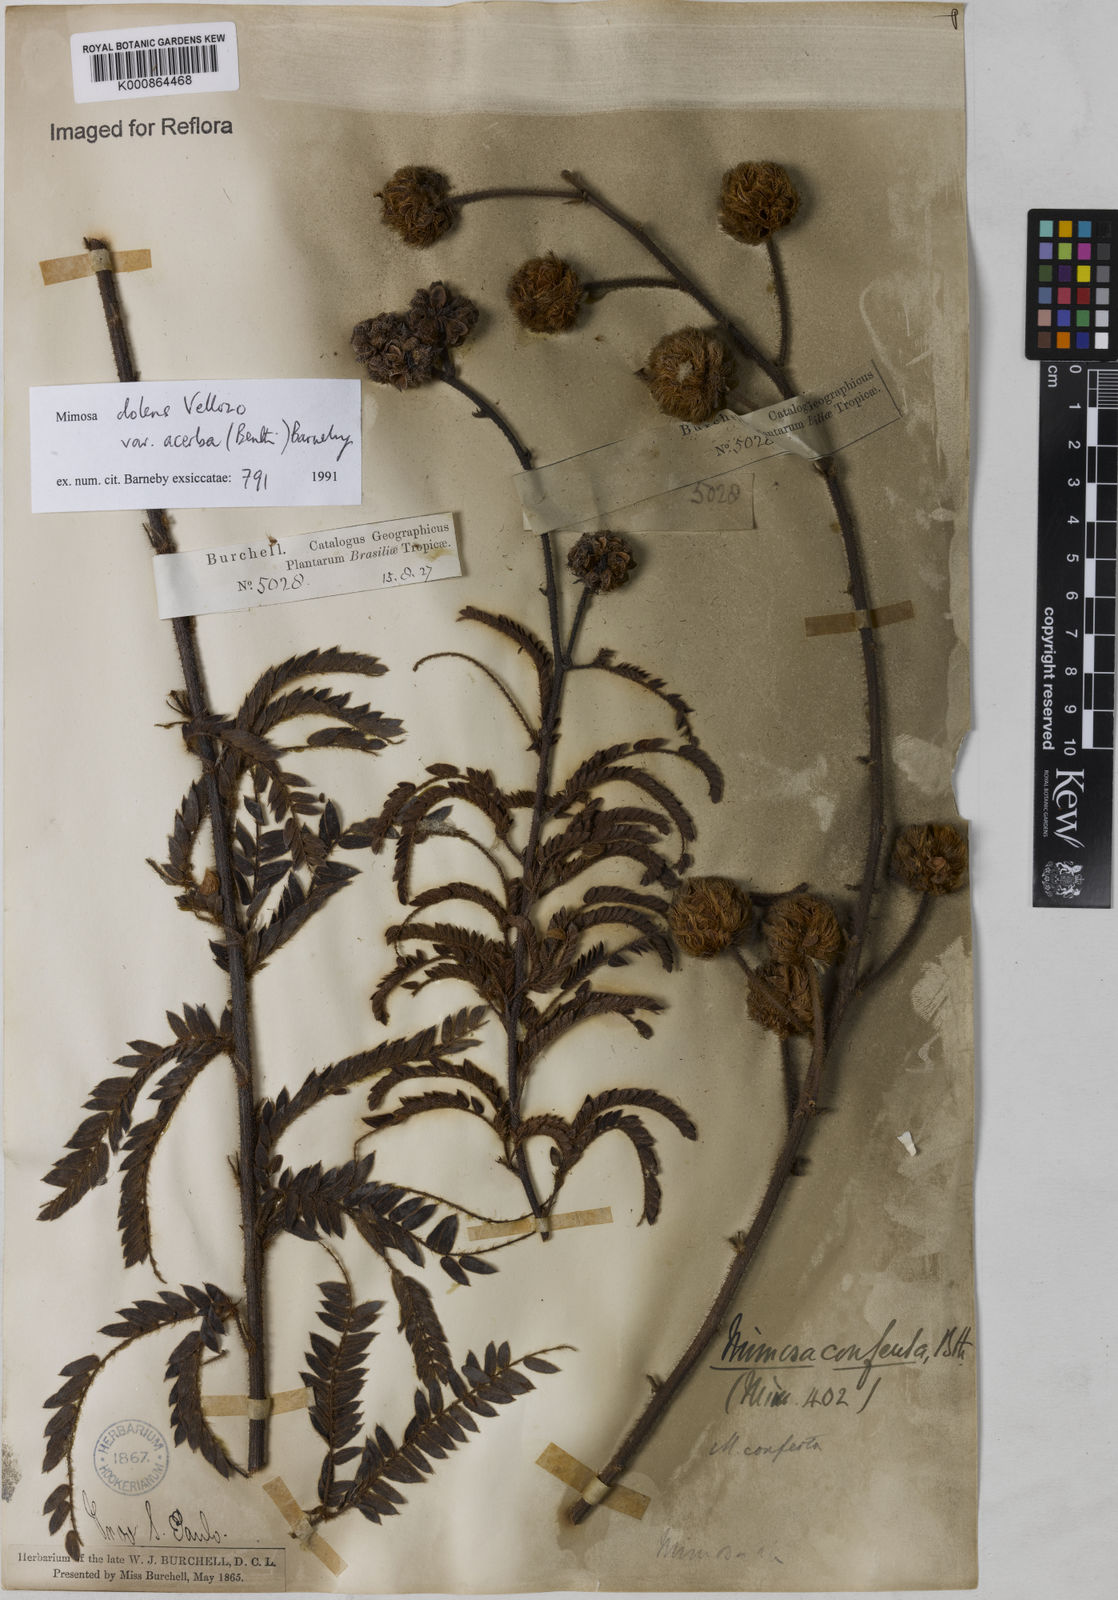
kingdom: Plantae
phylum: Tracheophyta
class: Magnoliopsida
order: Fabales
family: Fabaceae
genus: Mimosa
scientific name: Mimosa dolens
